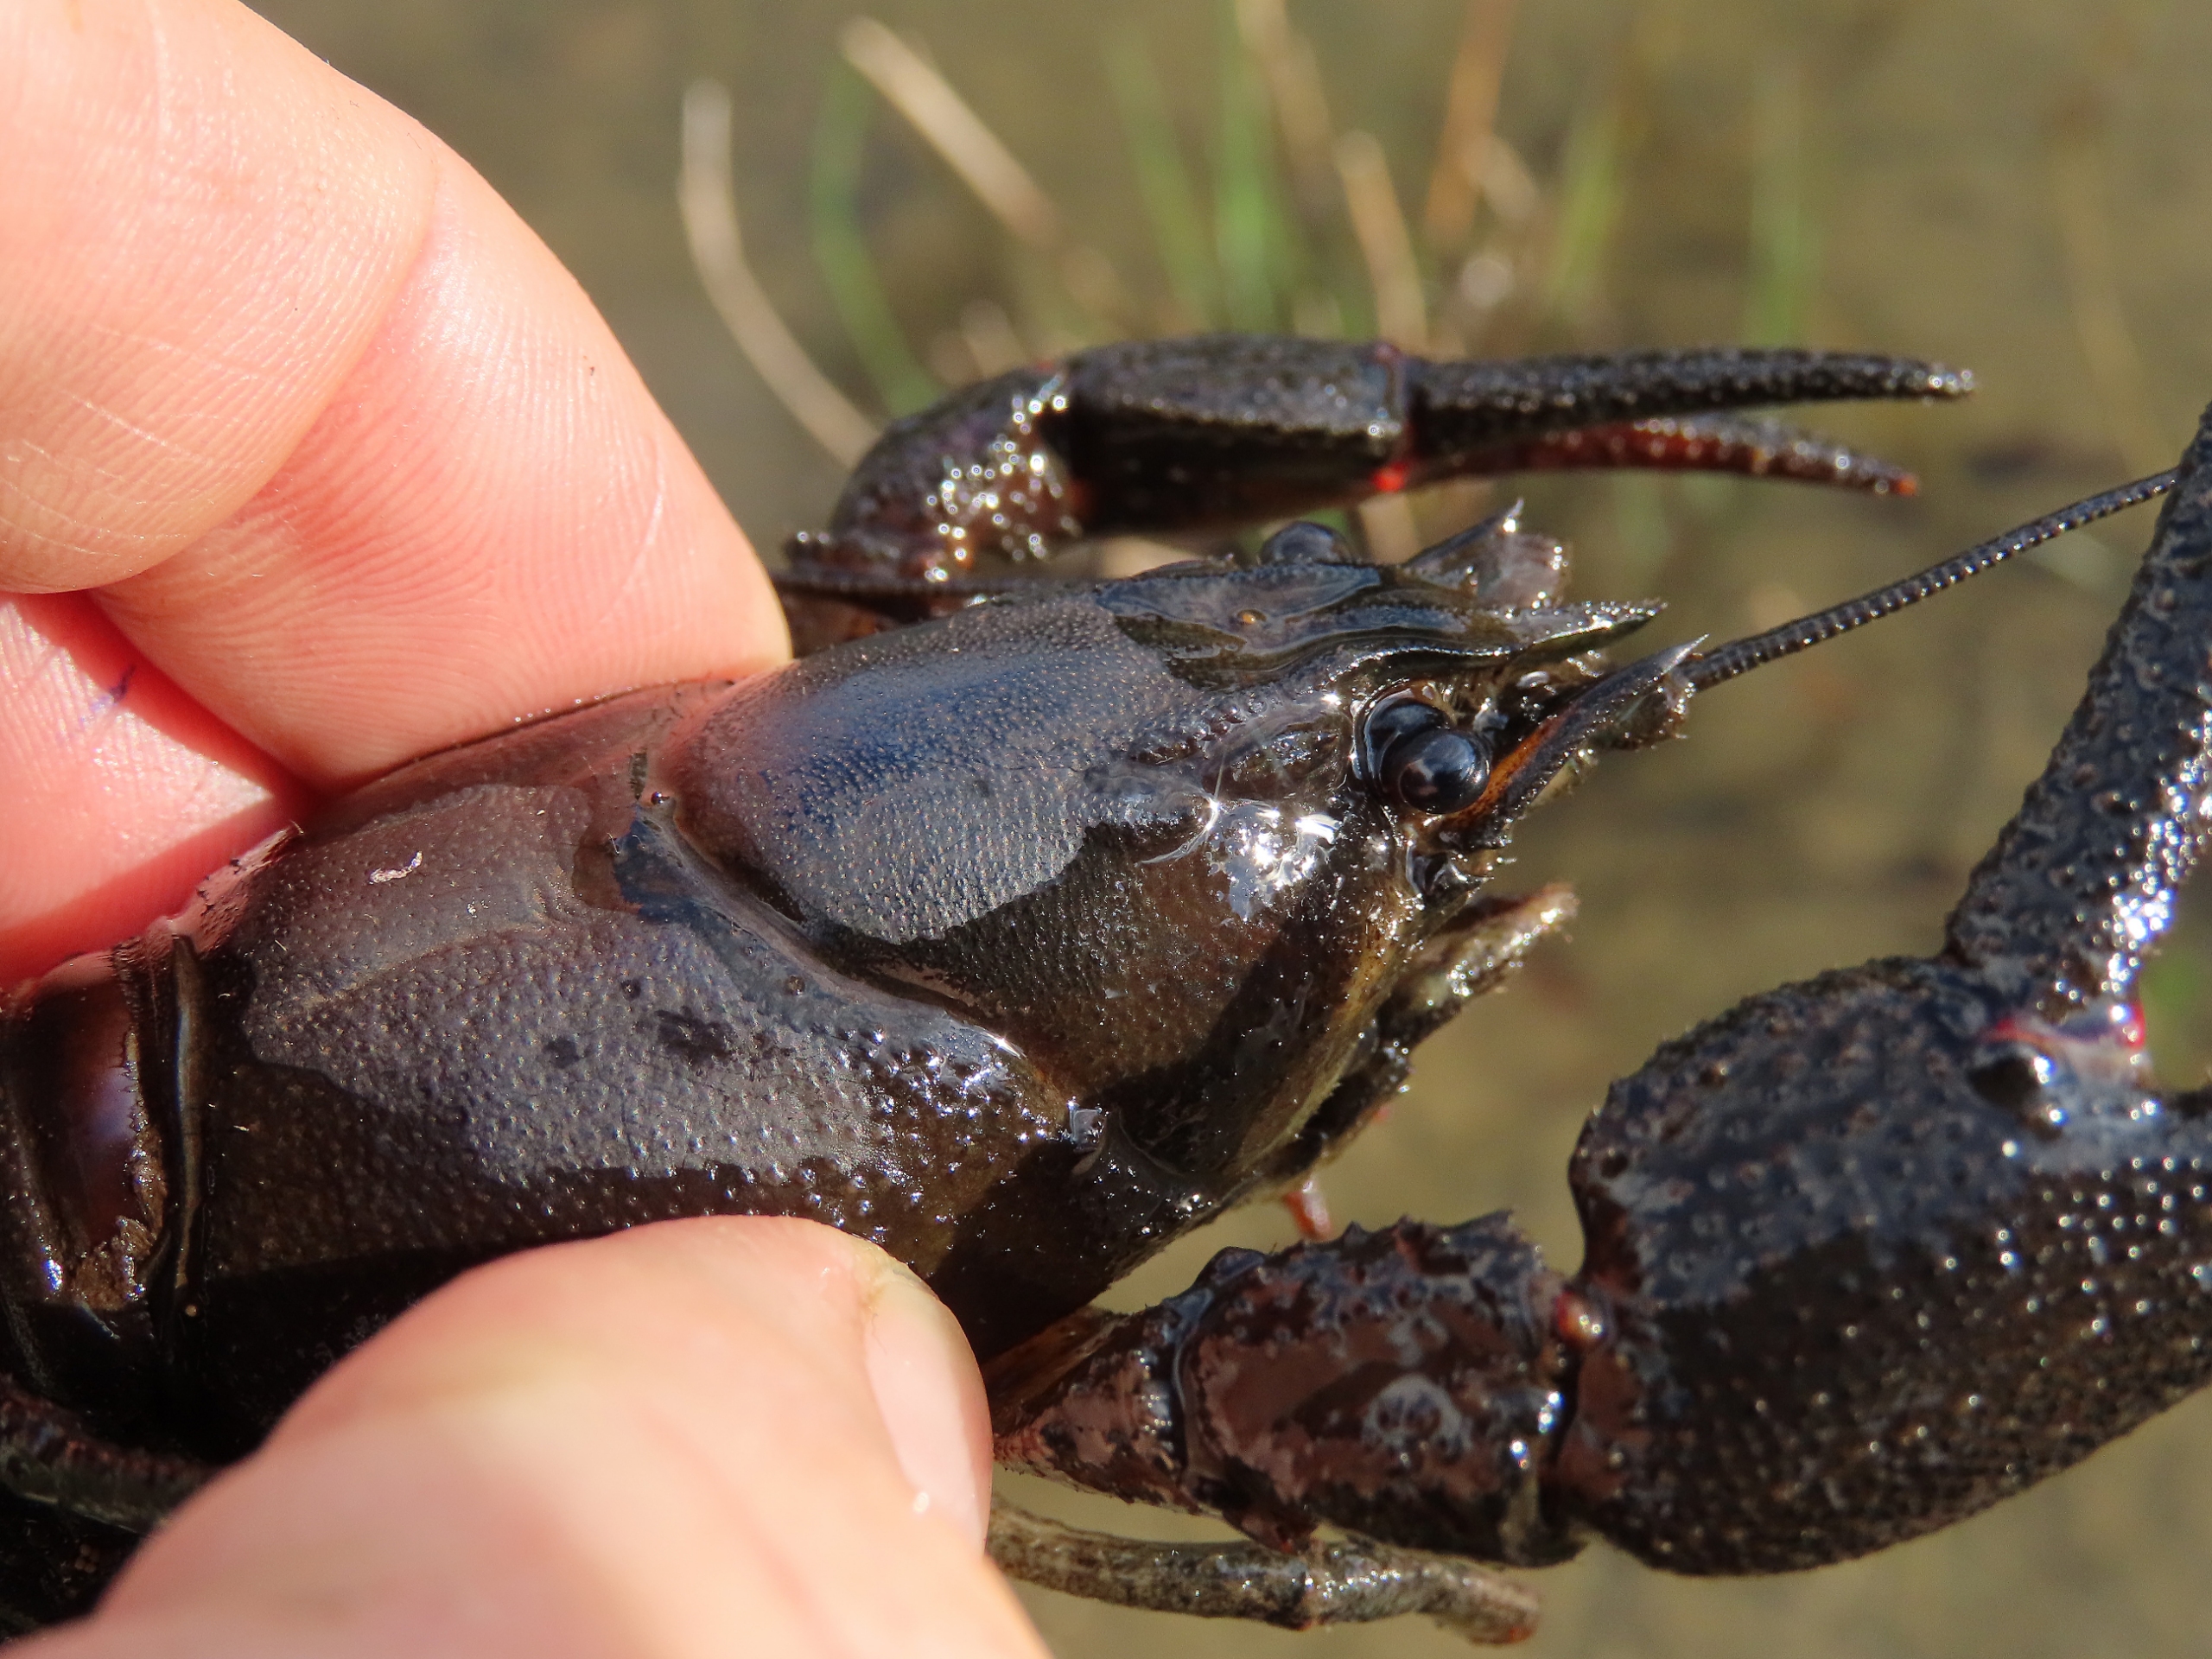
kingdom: Animalia
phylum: Arthropoda
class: Malacostraca
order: Decapoda
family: Astacidae
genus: Astacus
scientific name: Astacus astacus
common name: Flodkrebs
